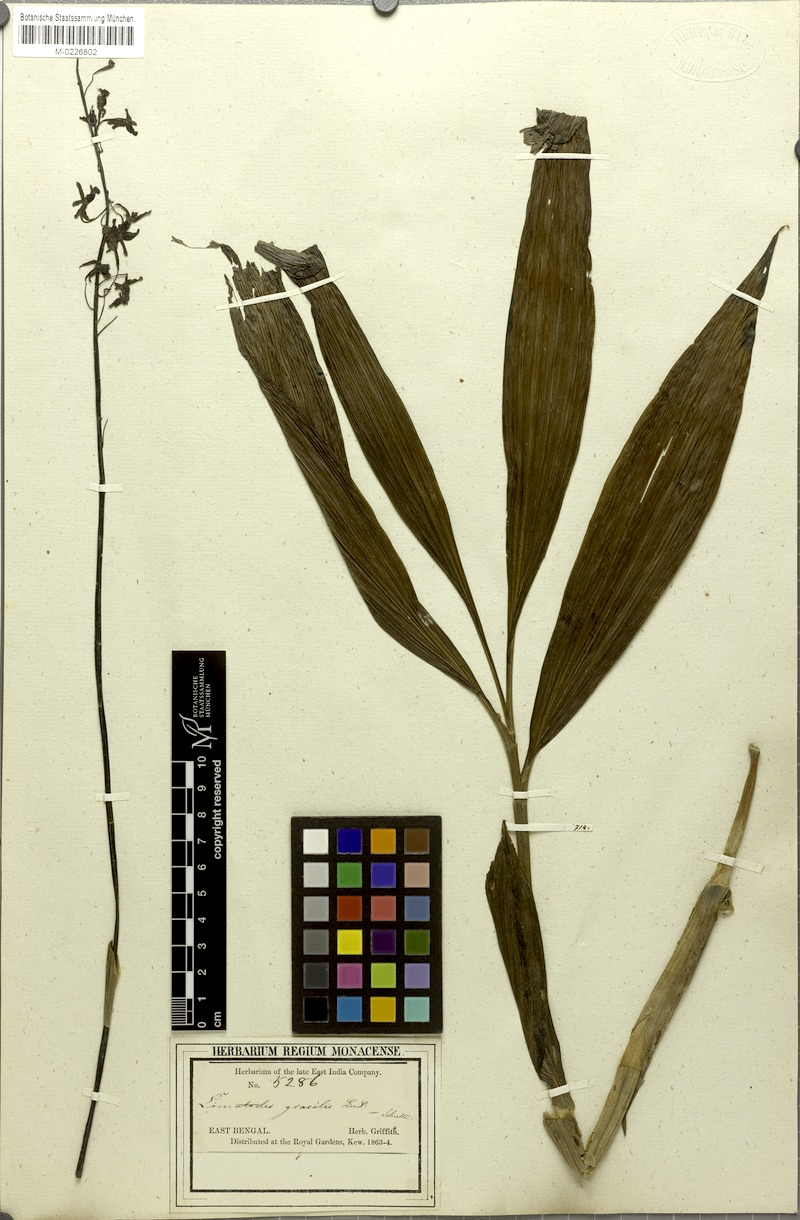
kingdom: Plantae
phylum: Tracheophyta
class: Liliopsida
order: Asparagales
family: Orchidaceae
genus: Calanthe
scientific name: Calanthe obcordata
